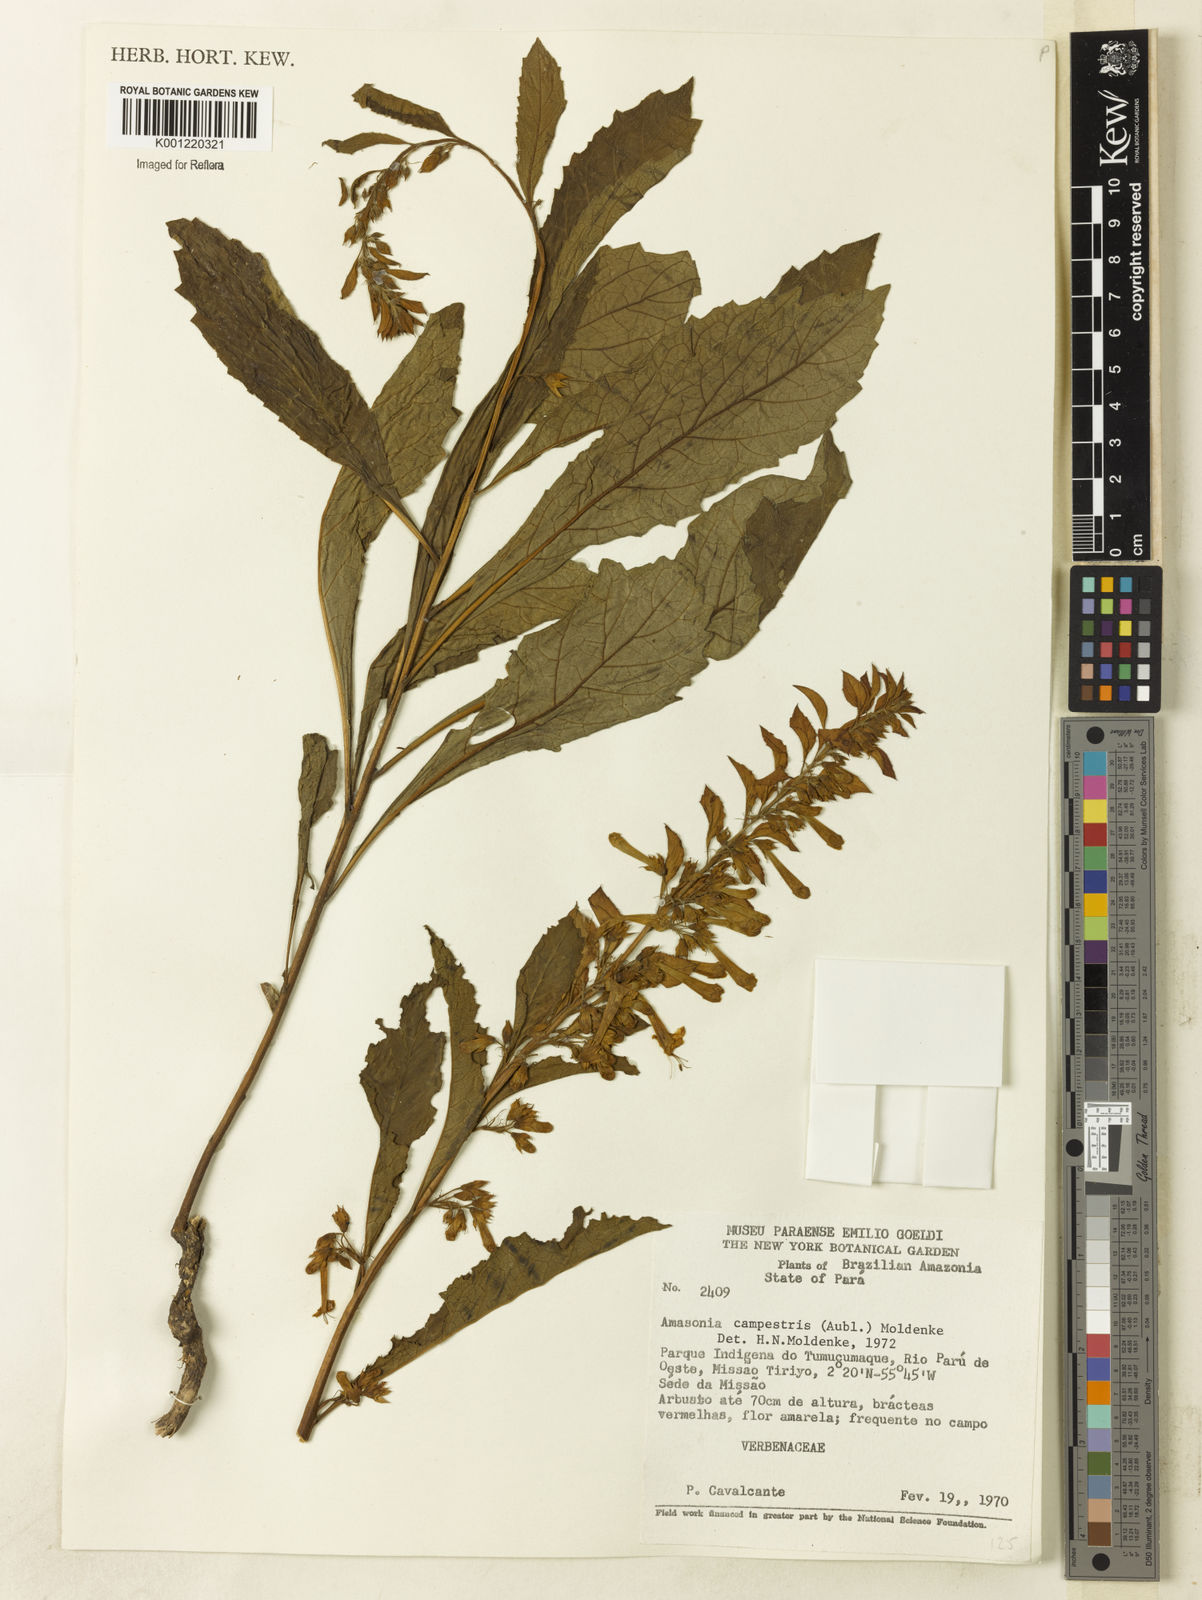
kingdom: Plantae
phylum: Tracheophyta
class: Magnoliopsida
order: Lamiales
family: Lamiaceae
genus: Amasonia
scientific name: Amasonia campestris
